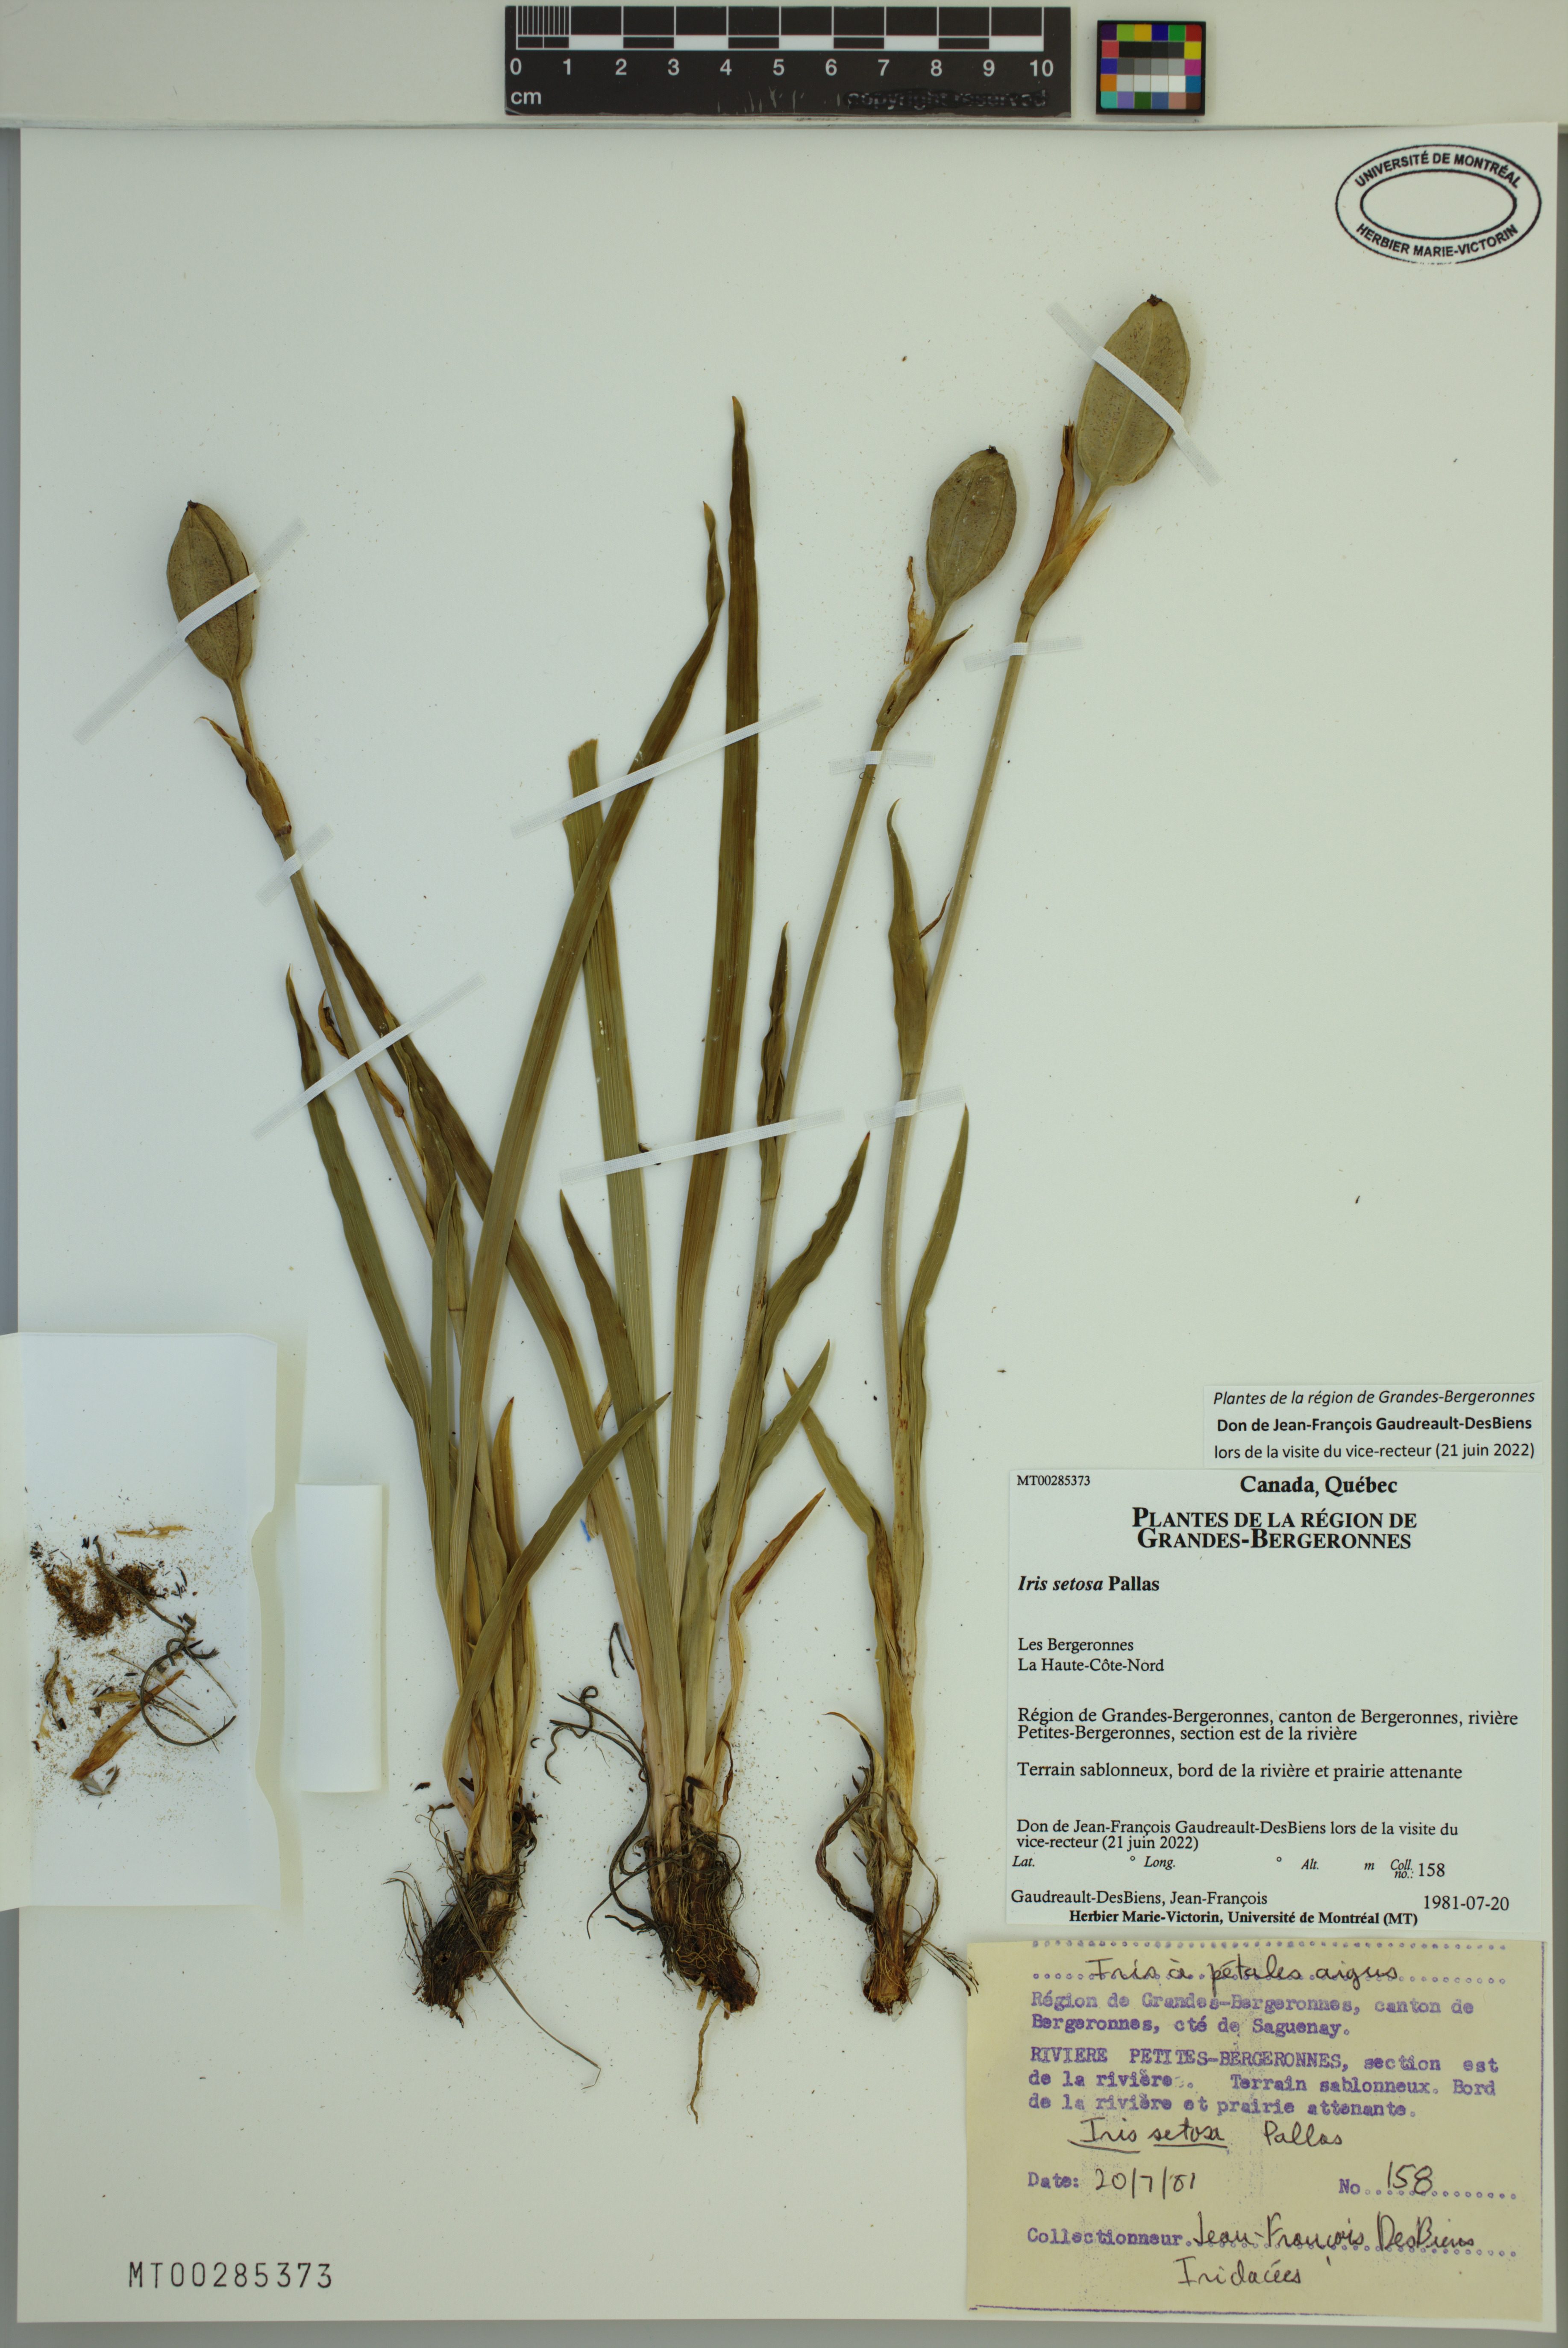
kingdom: Plantae
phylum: Tracheophyta
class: Liliopsida
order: Asparagales
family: Iridaceae
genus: Iris
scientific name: Iris setosa
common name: Arctic blue flag
